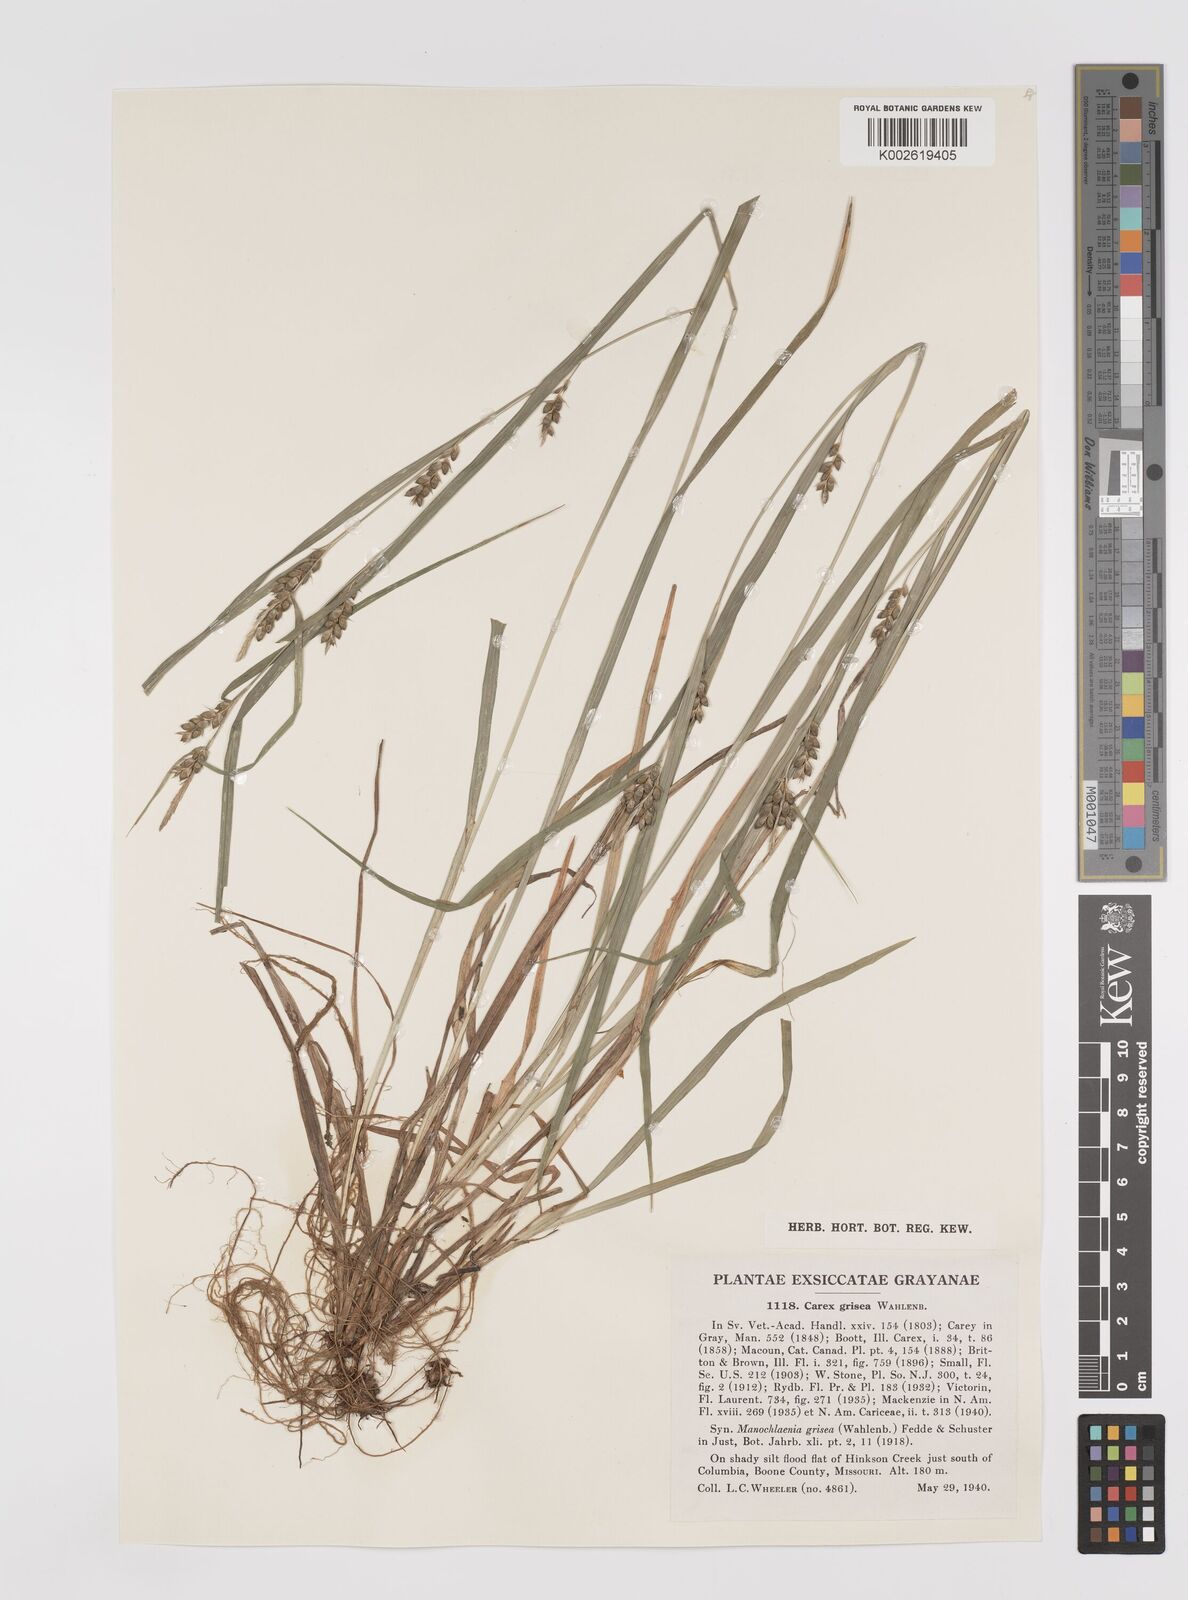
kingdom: Plantae
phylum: Tracheophyta
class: Liliopsida
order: Poales
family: Cyperaceae
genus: Carex
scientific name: Carex grisea
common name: Eastern narrow-leaved sedge
